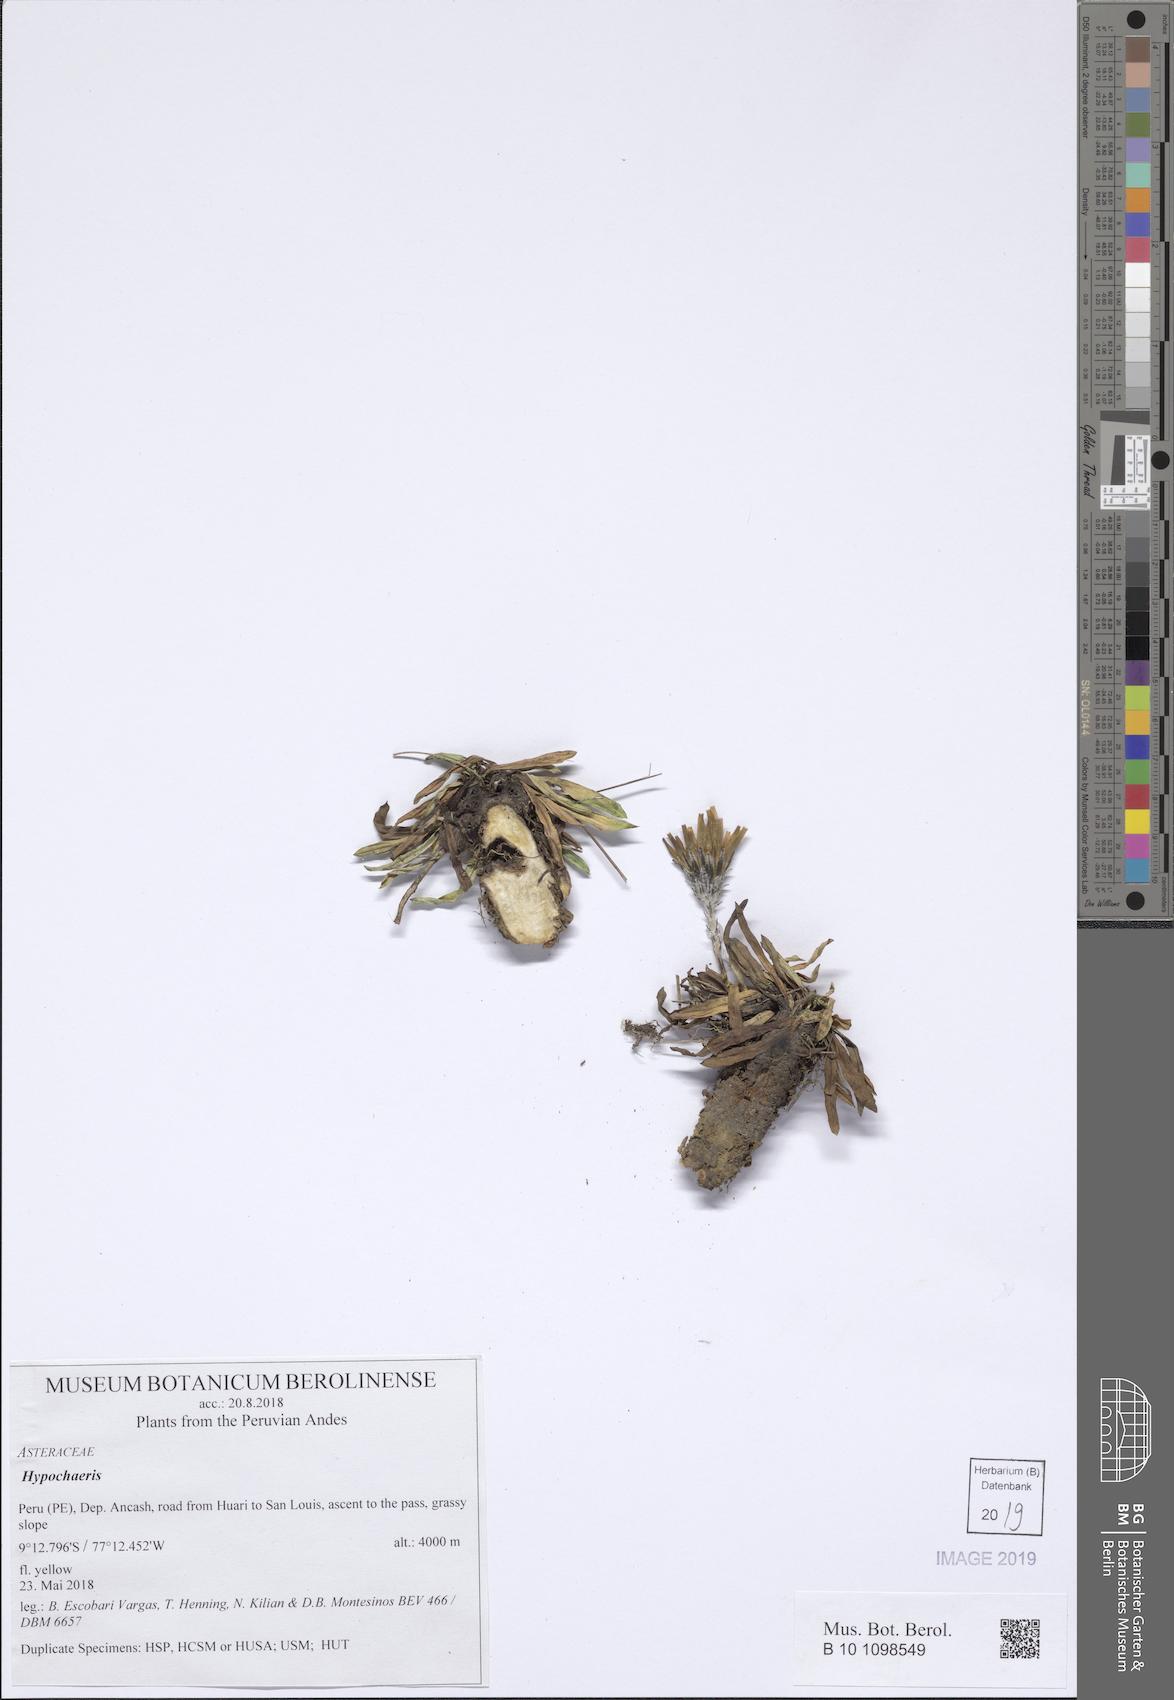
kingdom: Plantae
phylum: Tracheophyta
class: Magnoliopsida
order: Asterales
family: Asteraceae
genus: Hypochaeris
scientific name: Hypochaeris
